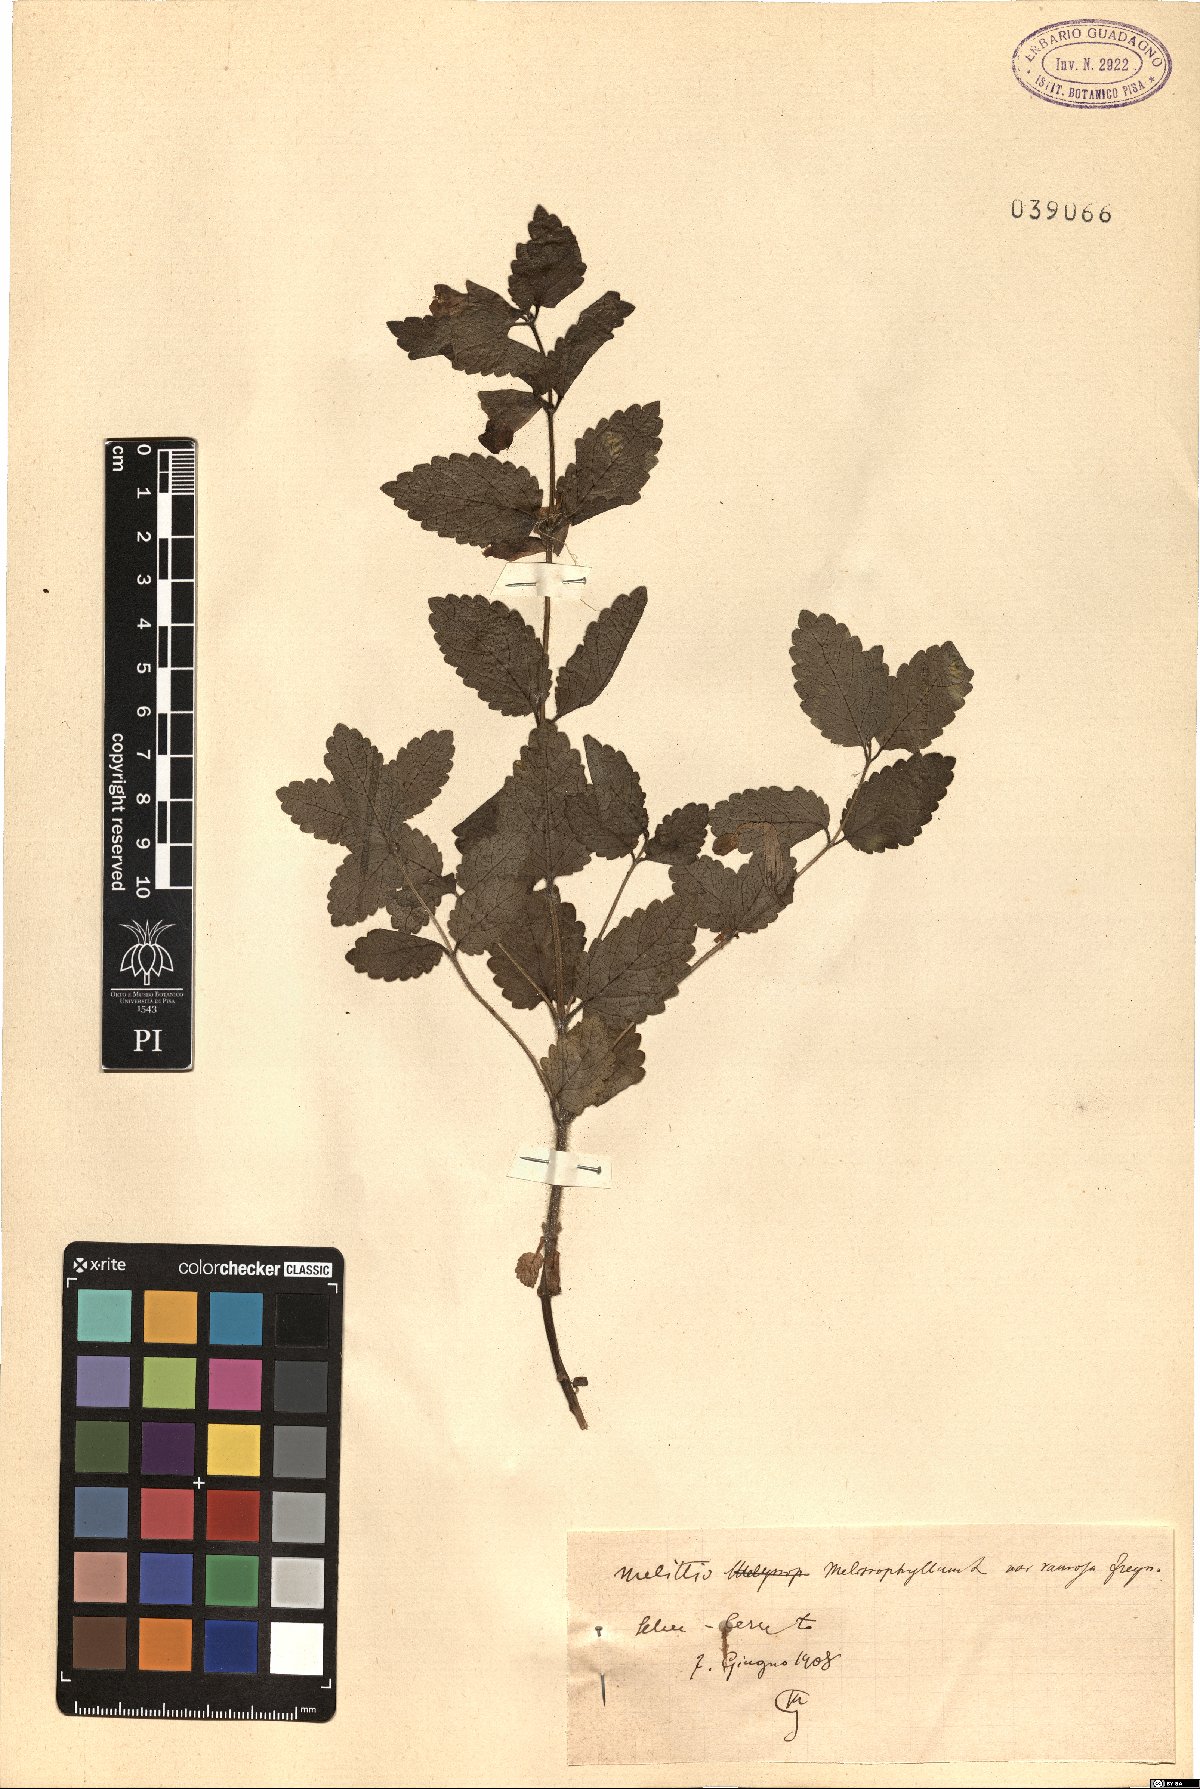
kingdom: Plantae
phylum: Tracheophyta
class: Magnoliopsida
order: Lamiales
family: Lamiaceae
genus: Melittis
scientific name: Melittis melissophyllum
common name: Bastard balm
